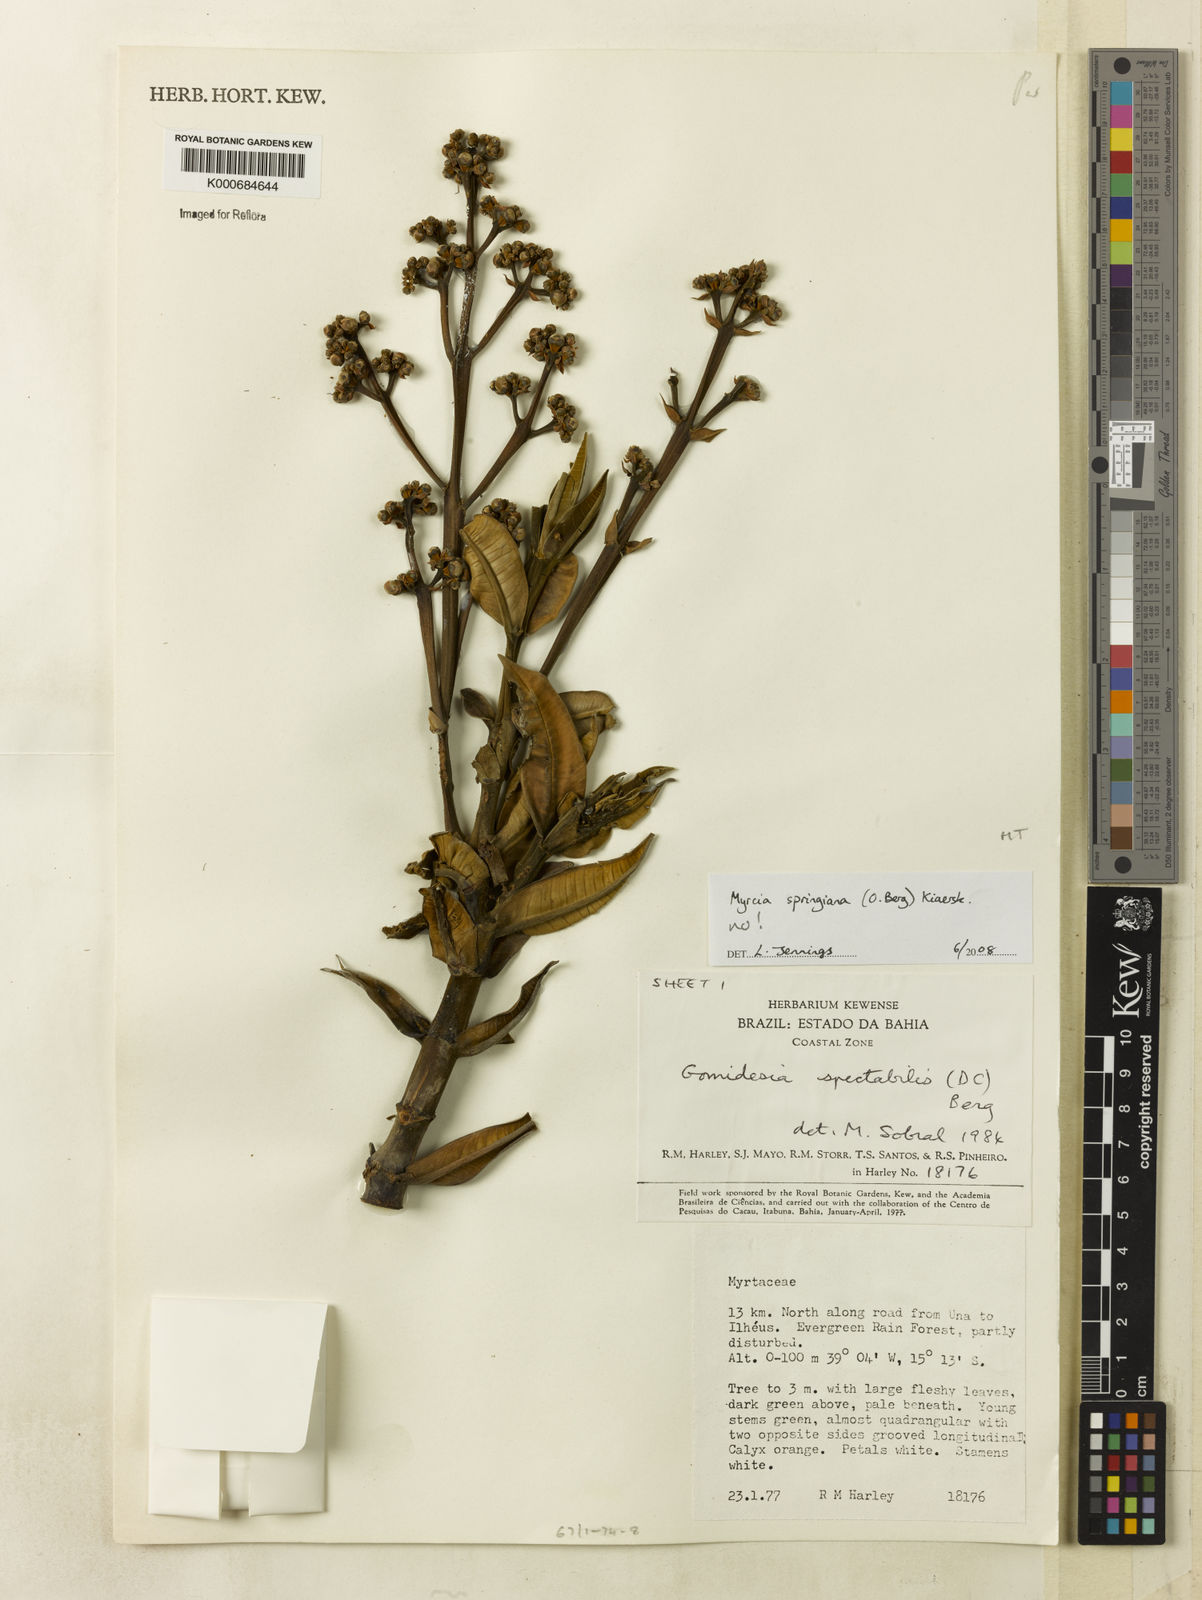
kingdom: Plantae
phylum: Tracheophyta
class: Magnoliopsida
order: Myrtales
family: Myrtaceae
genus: Myrcia
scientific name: Myrcia
